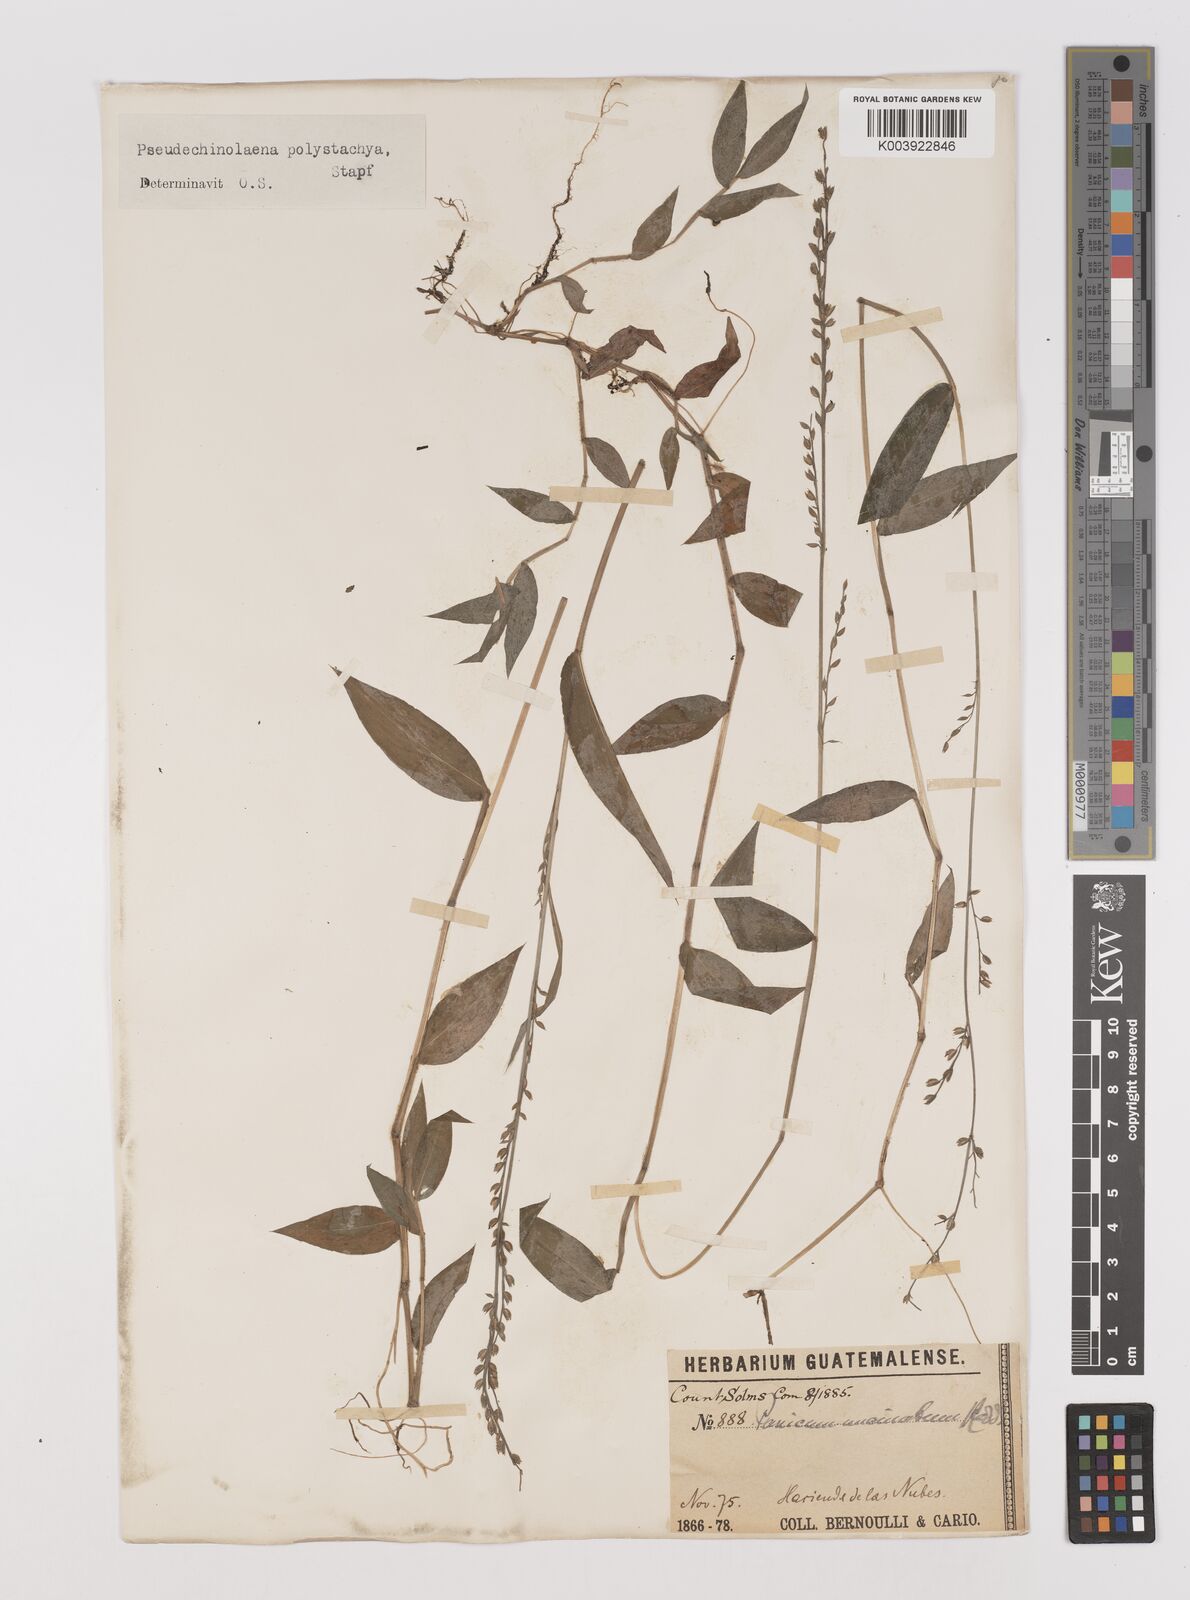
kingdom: Plantae
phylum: Tracheophyta
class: Liliopsida
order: Poales
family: Poaceae
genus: Pseudechinolaena
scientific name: Pseudechinolaena polystachya
